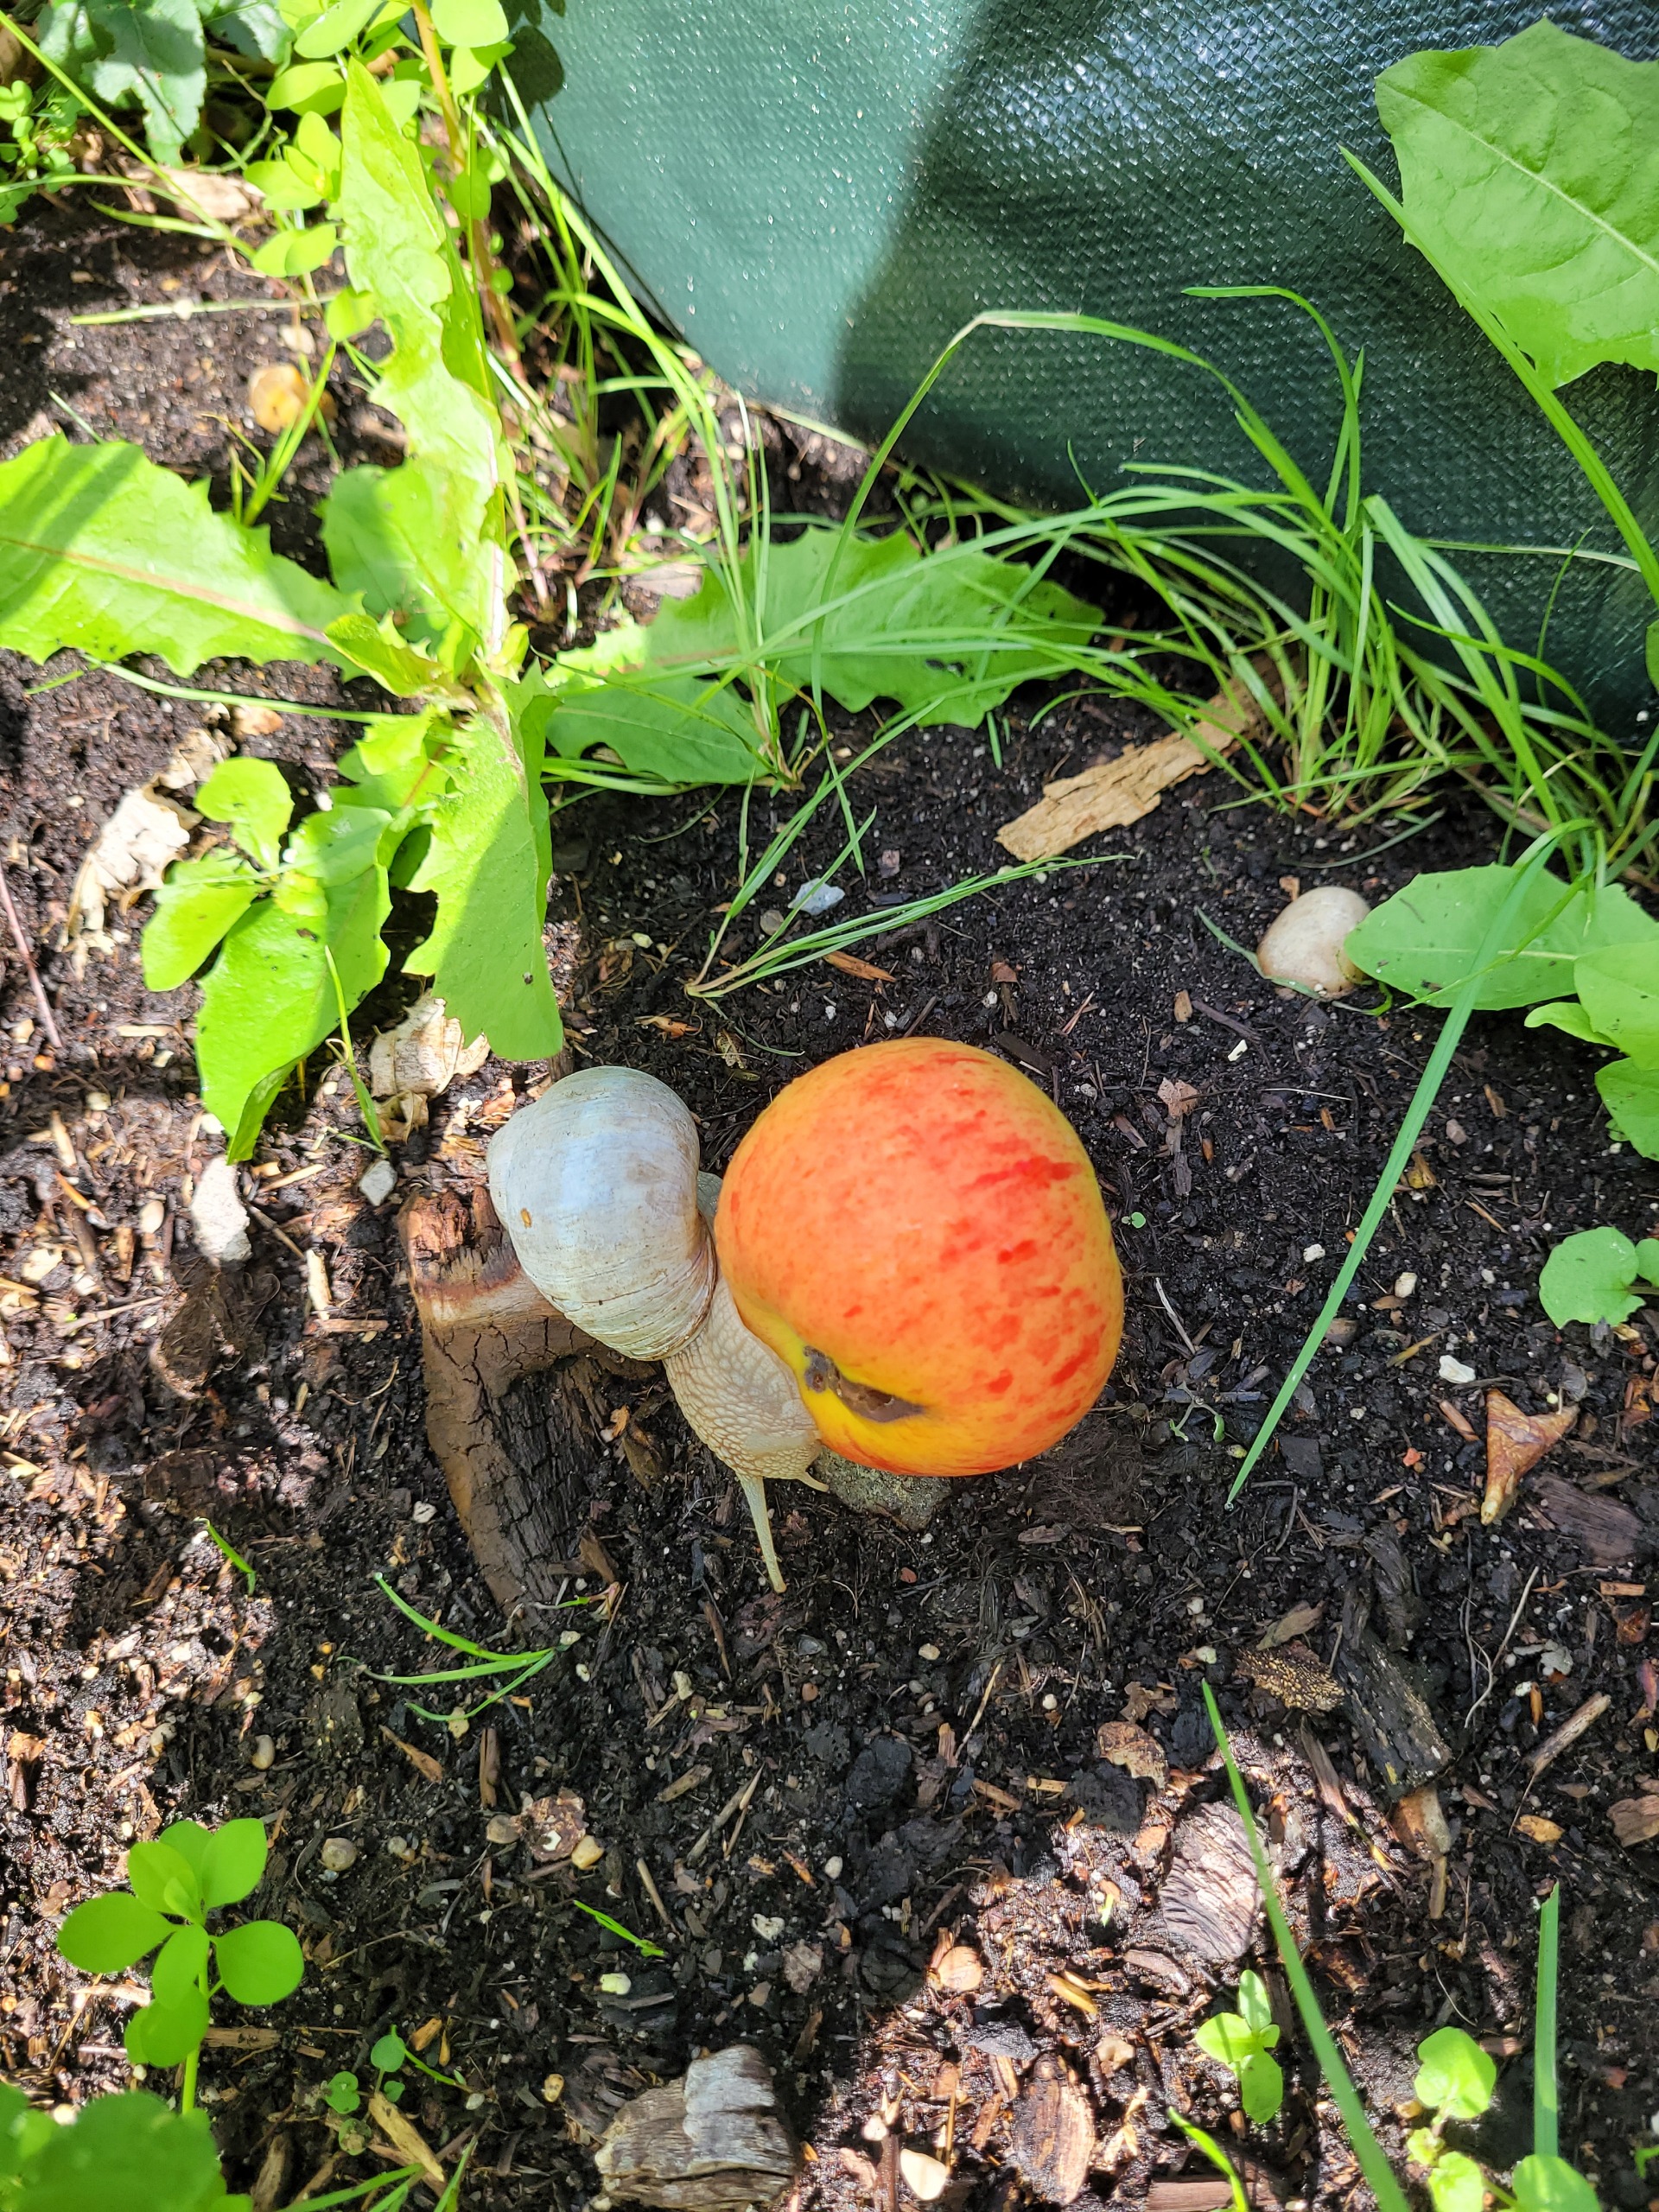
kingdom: Animalia
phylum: Mollusca
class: Gastropoda
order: Stylommatophora
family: Helicidae
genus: Helix
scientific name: Helix pomatia
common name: Vinbjergsnegl
